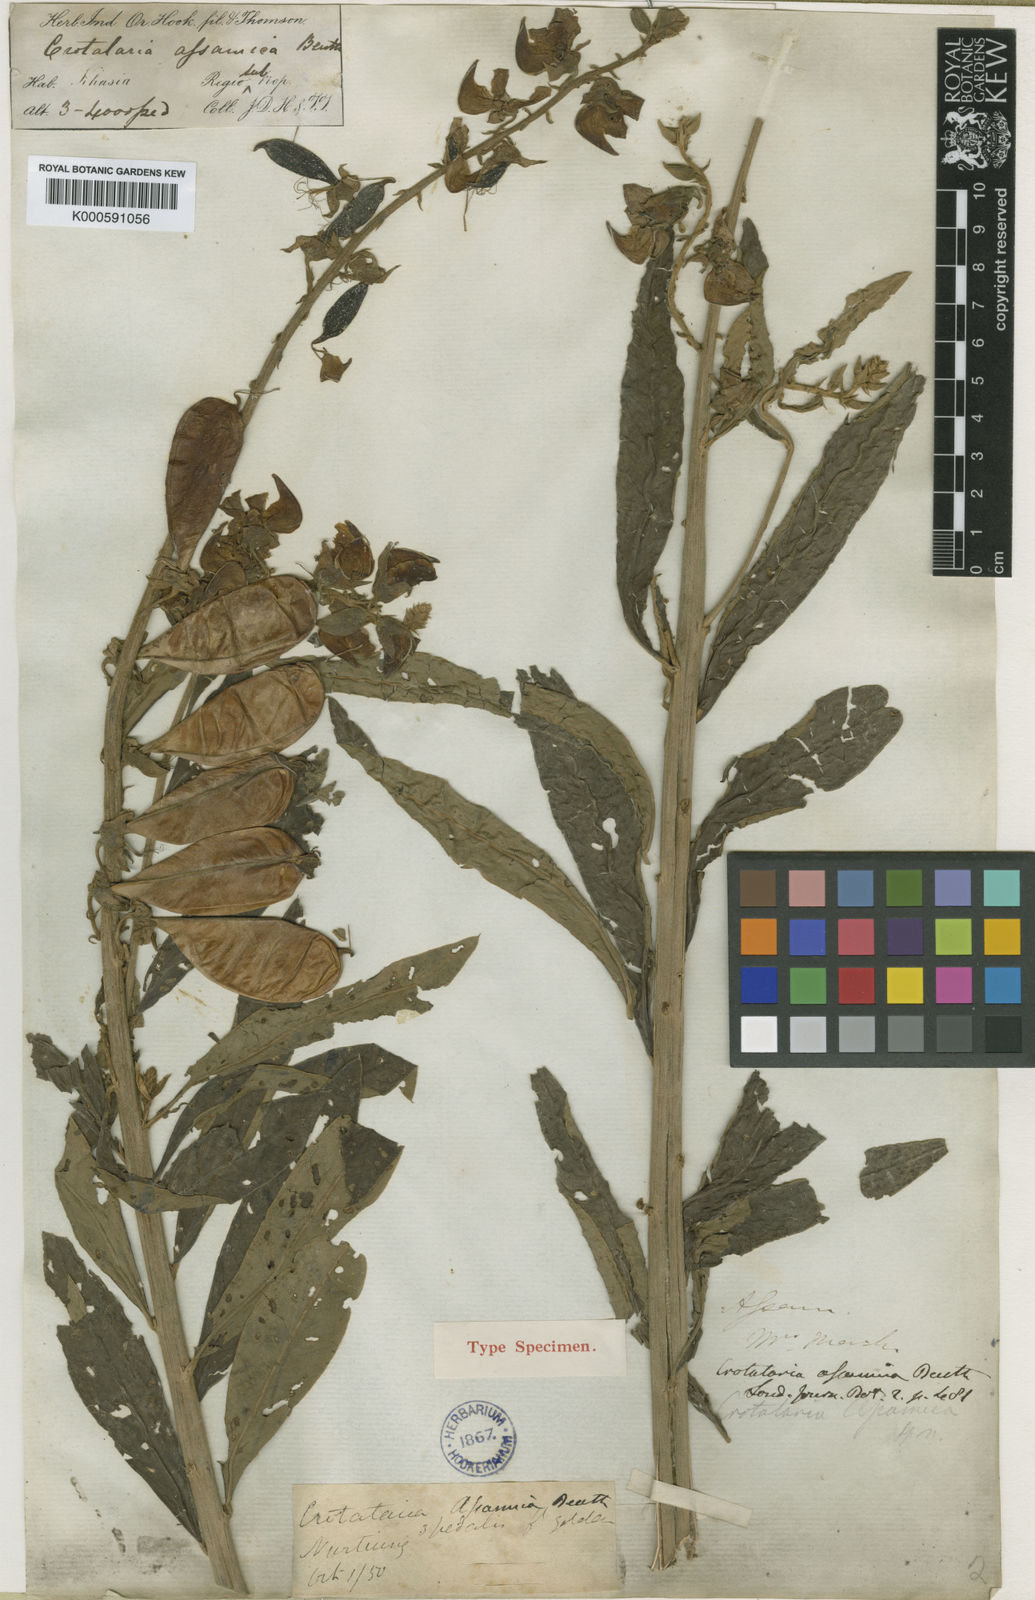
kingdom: Plantae
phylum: Tracheophyta
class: Magnoliopsida
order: Fabales
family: Fabaceae
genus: Crotalaria
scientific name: Crotalaria sericea
